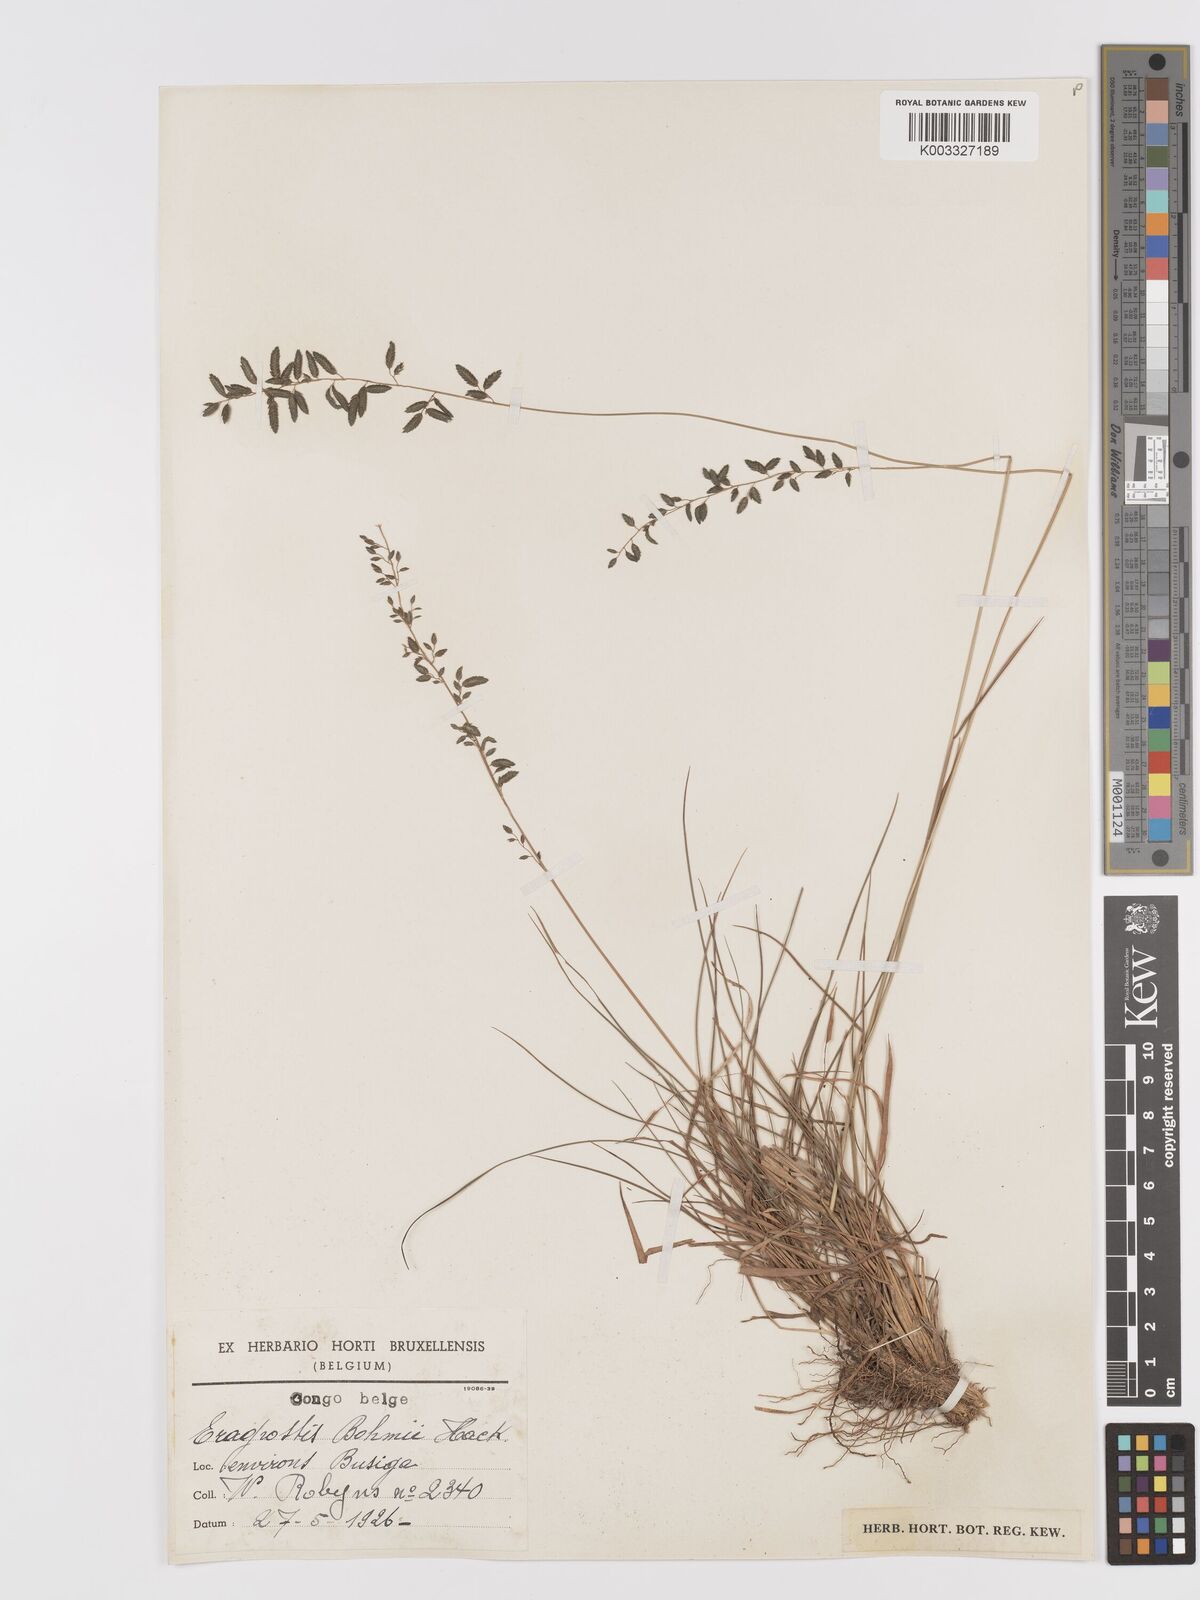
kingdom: Plantae
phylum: Tracheophyta
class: Liliopsida
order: Poales
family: Poaceae
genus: Eragrostis
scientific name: Eragrostis racemosa
